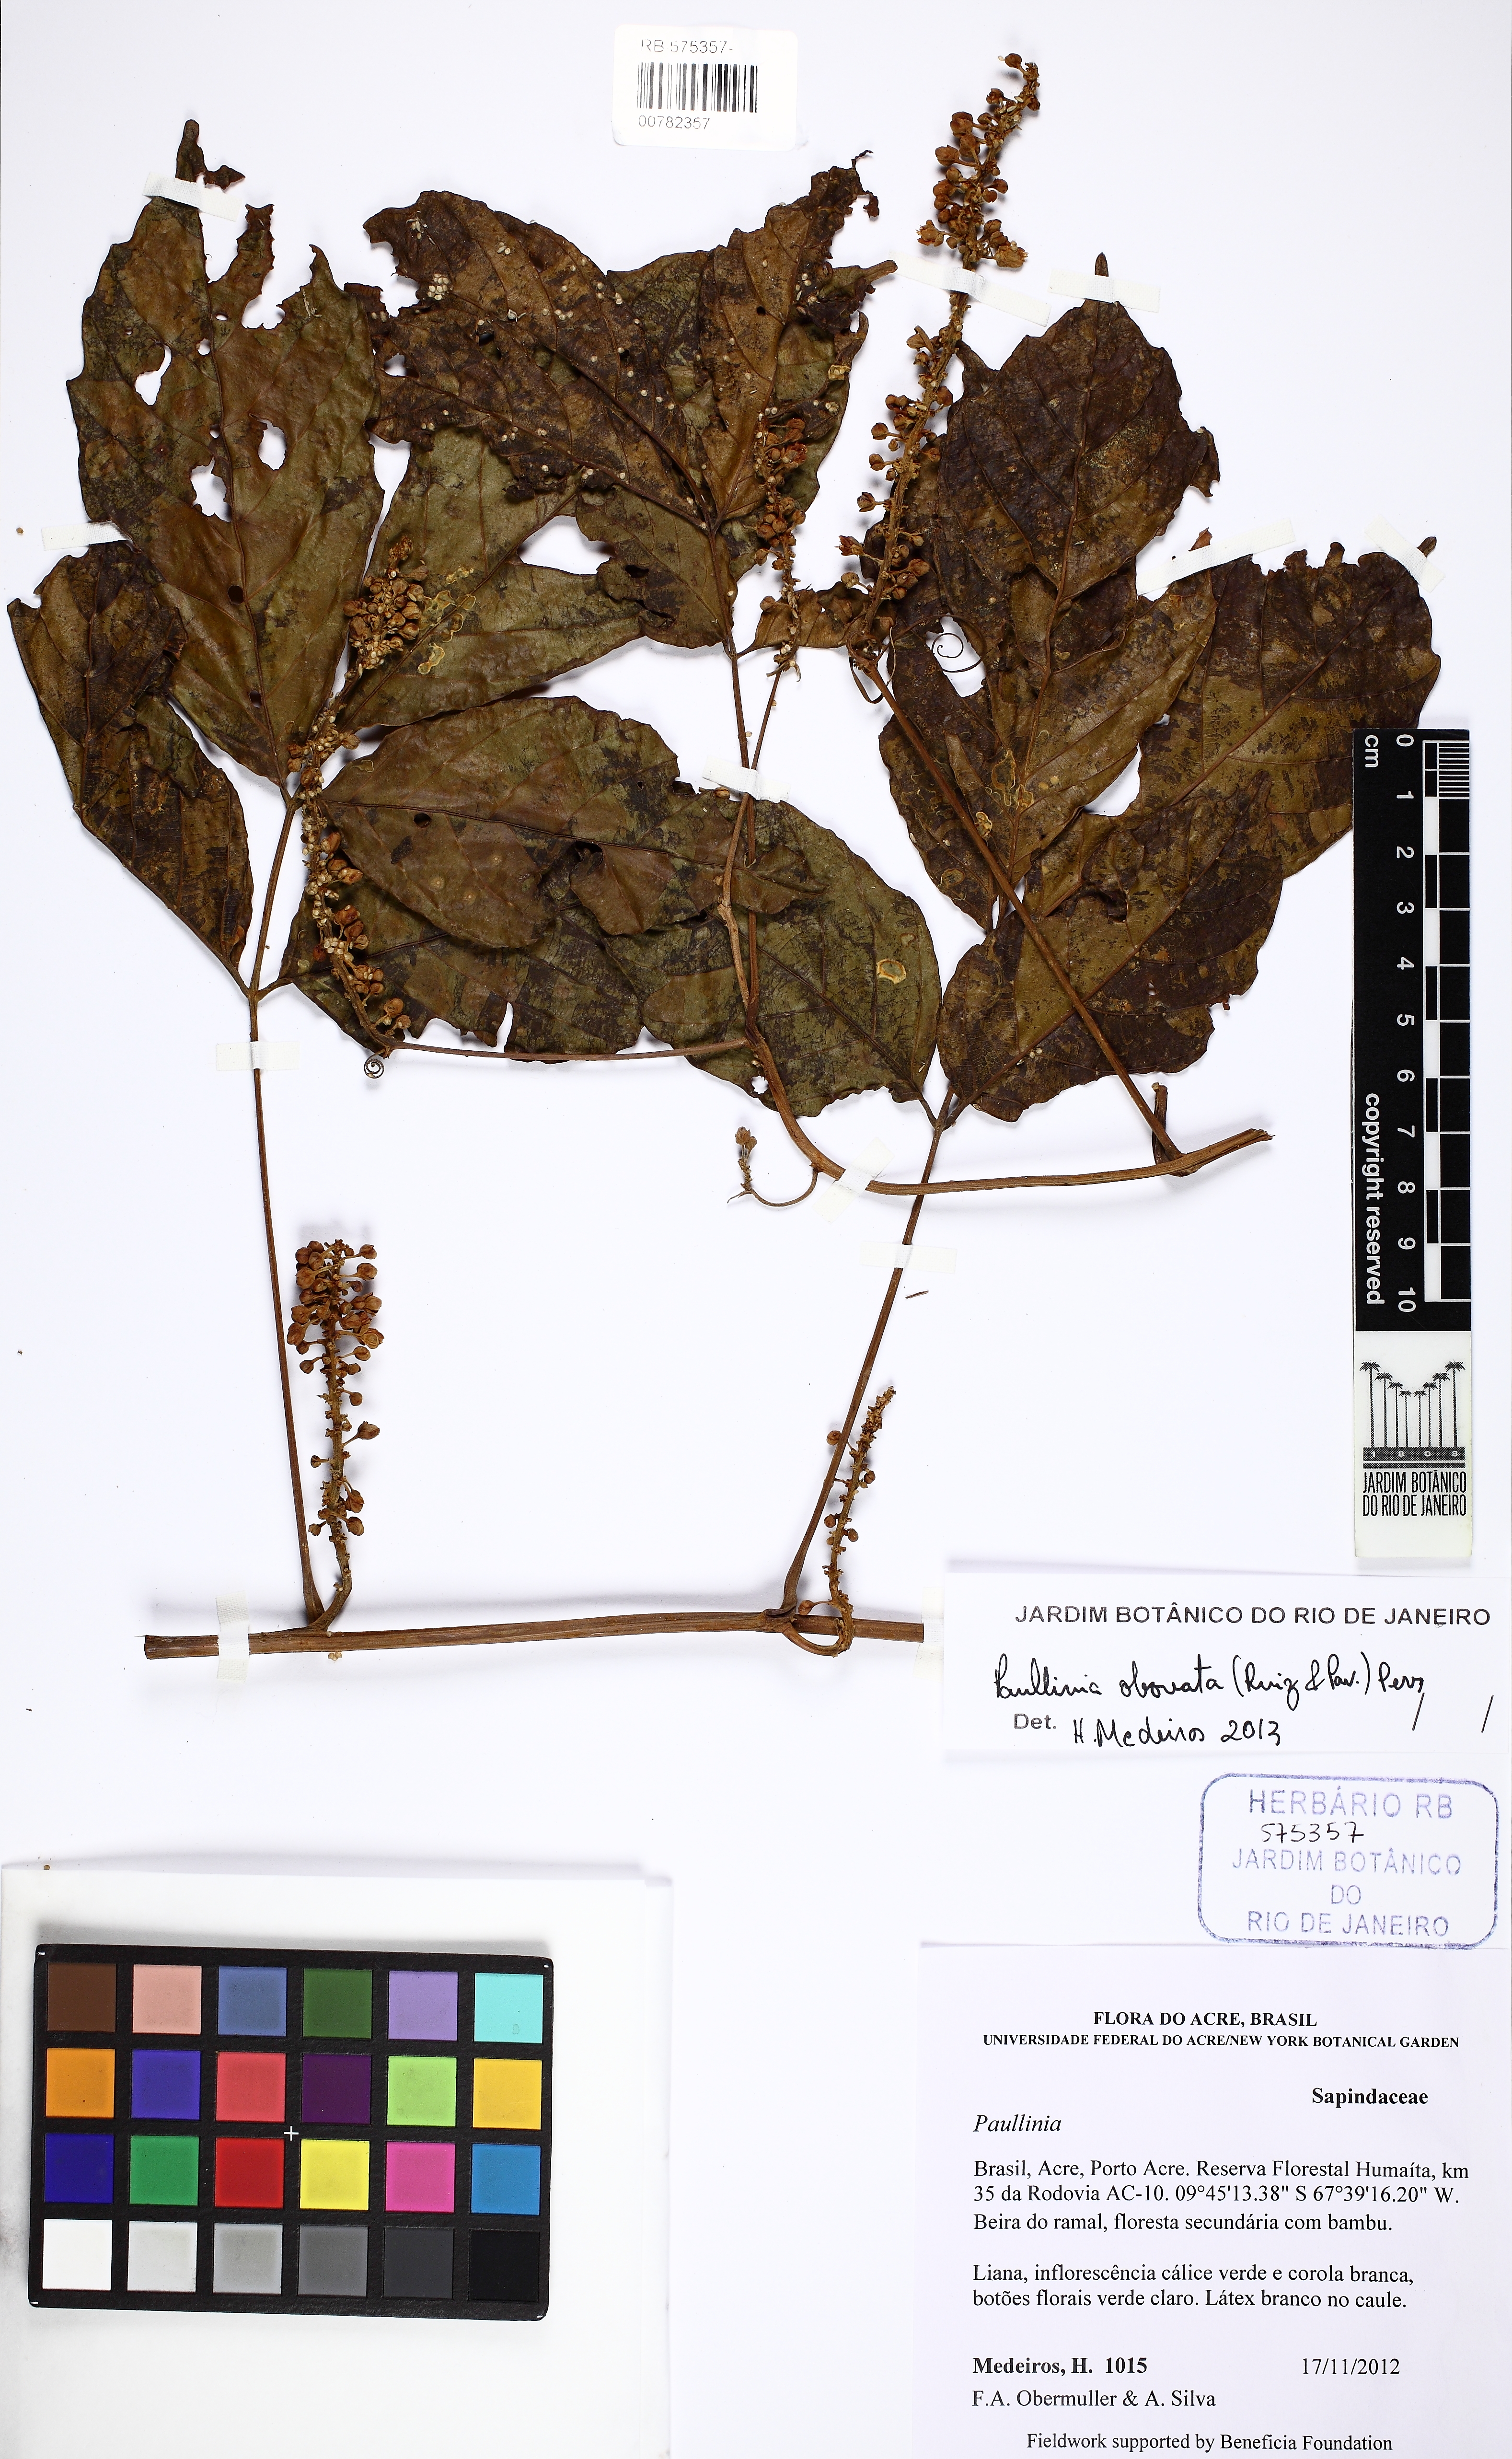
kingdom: Plantae
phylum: Tracheophyta
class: Magnoliopsida
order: Sapindales
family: Sapindaceae
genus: Paullinia
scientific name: Paullinia obovata
